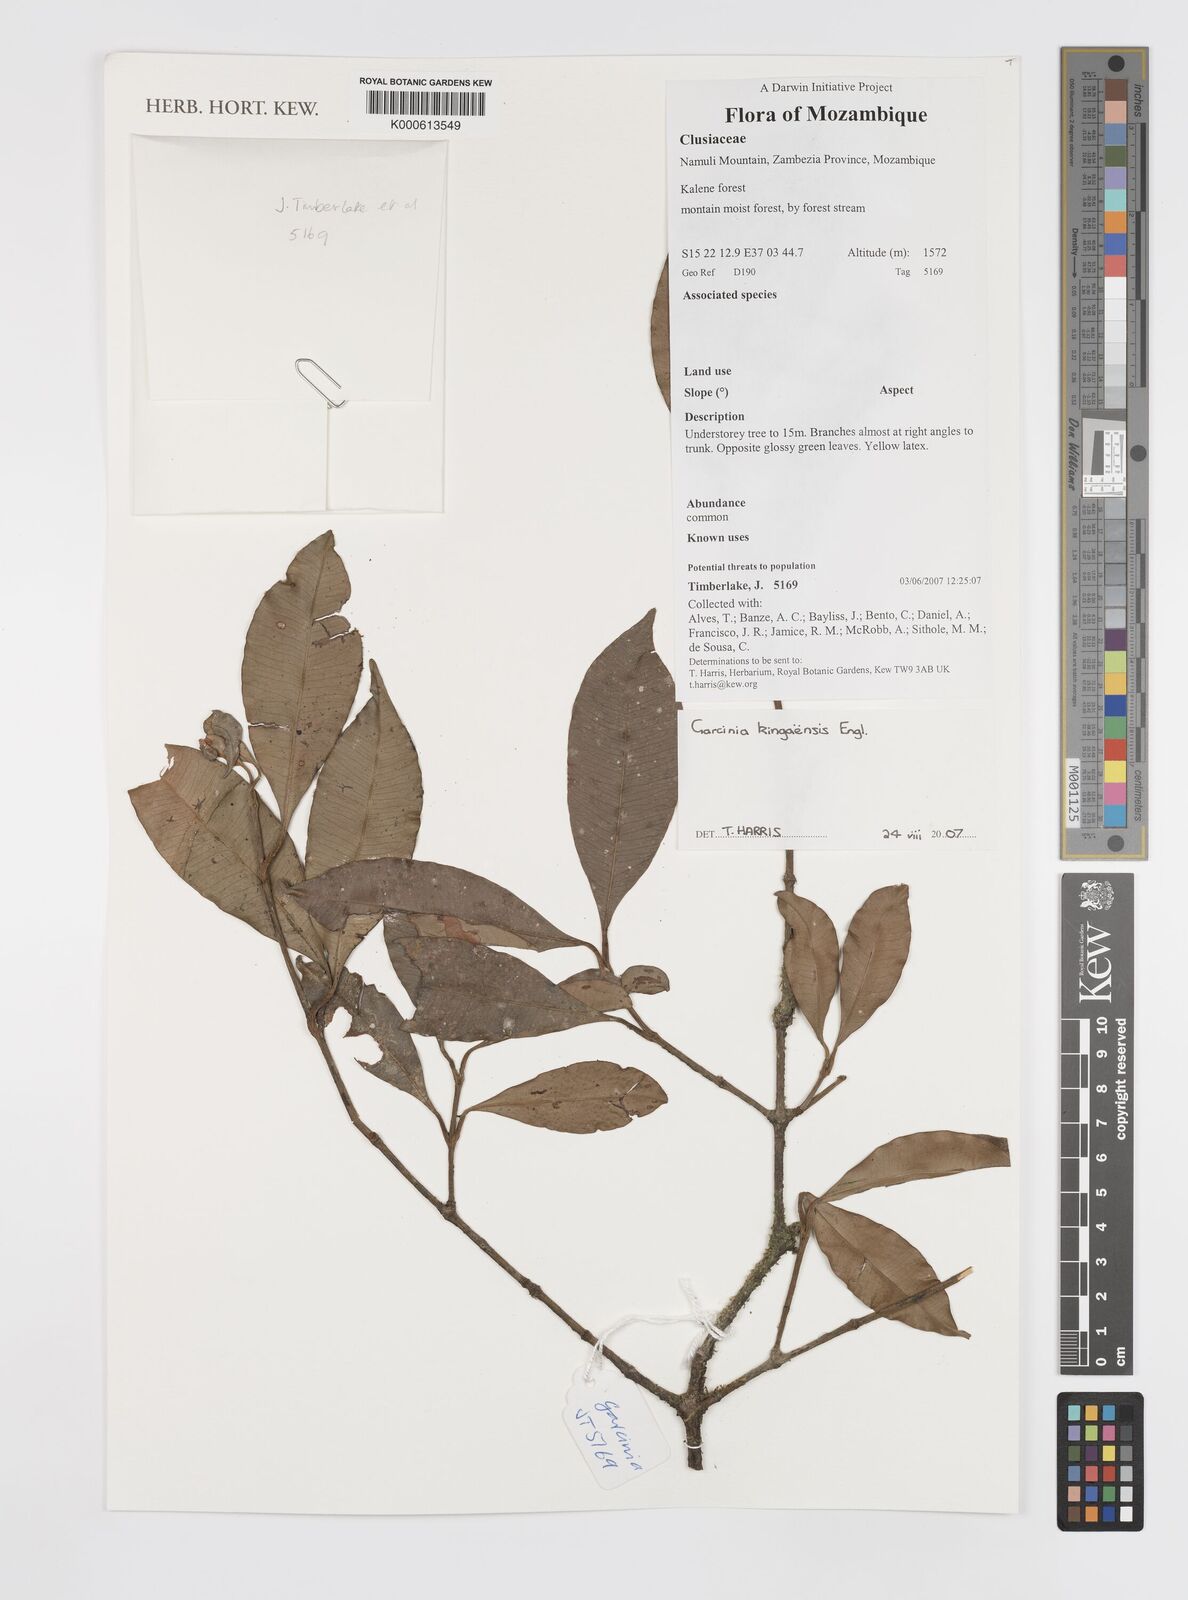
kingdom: Plantae
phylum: Tracheophyta
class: Magnoliopsida
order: Malpighiales
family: Clusiaceae
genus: Garcinia
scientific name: Garcinia kingaensis
